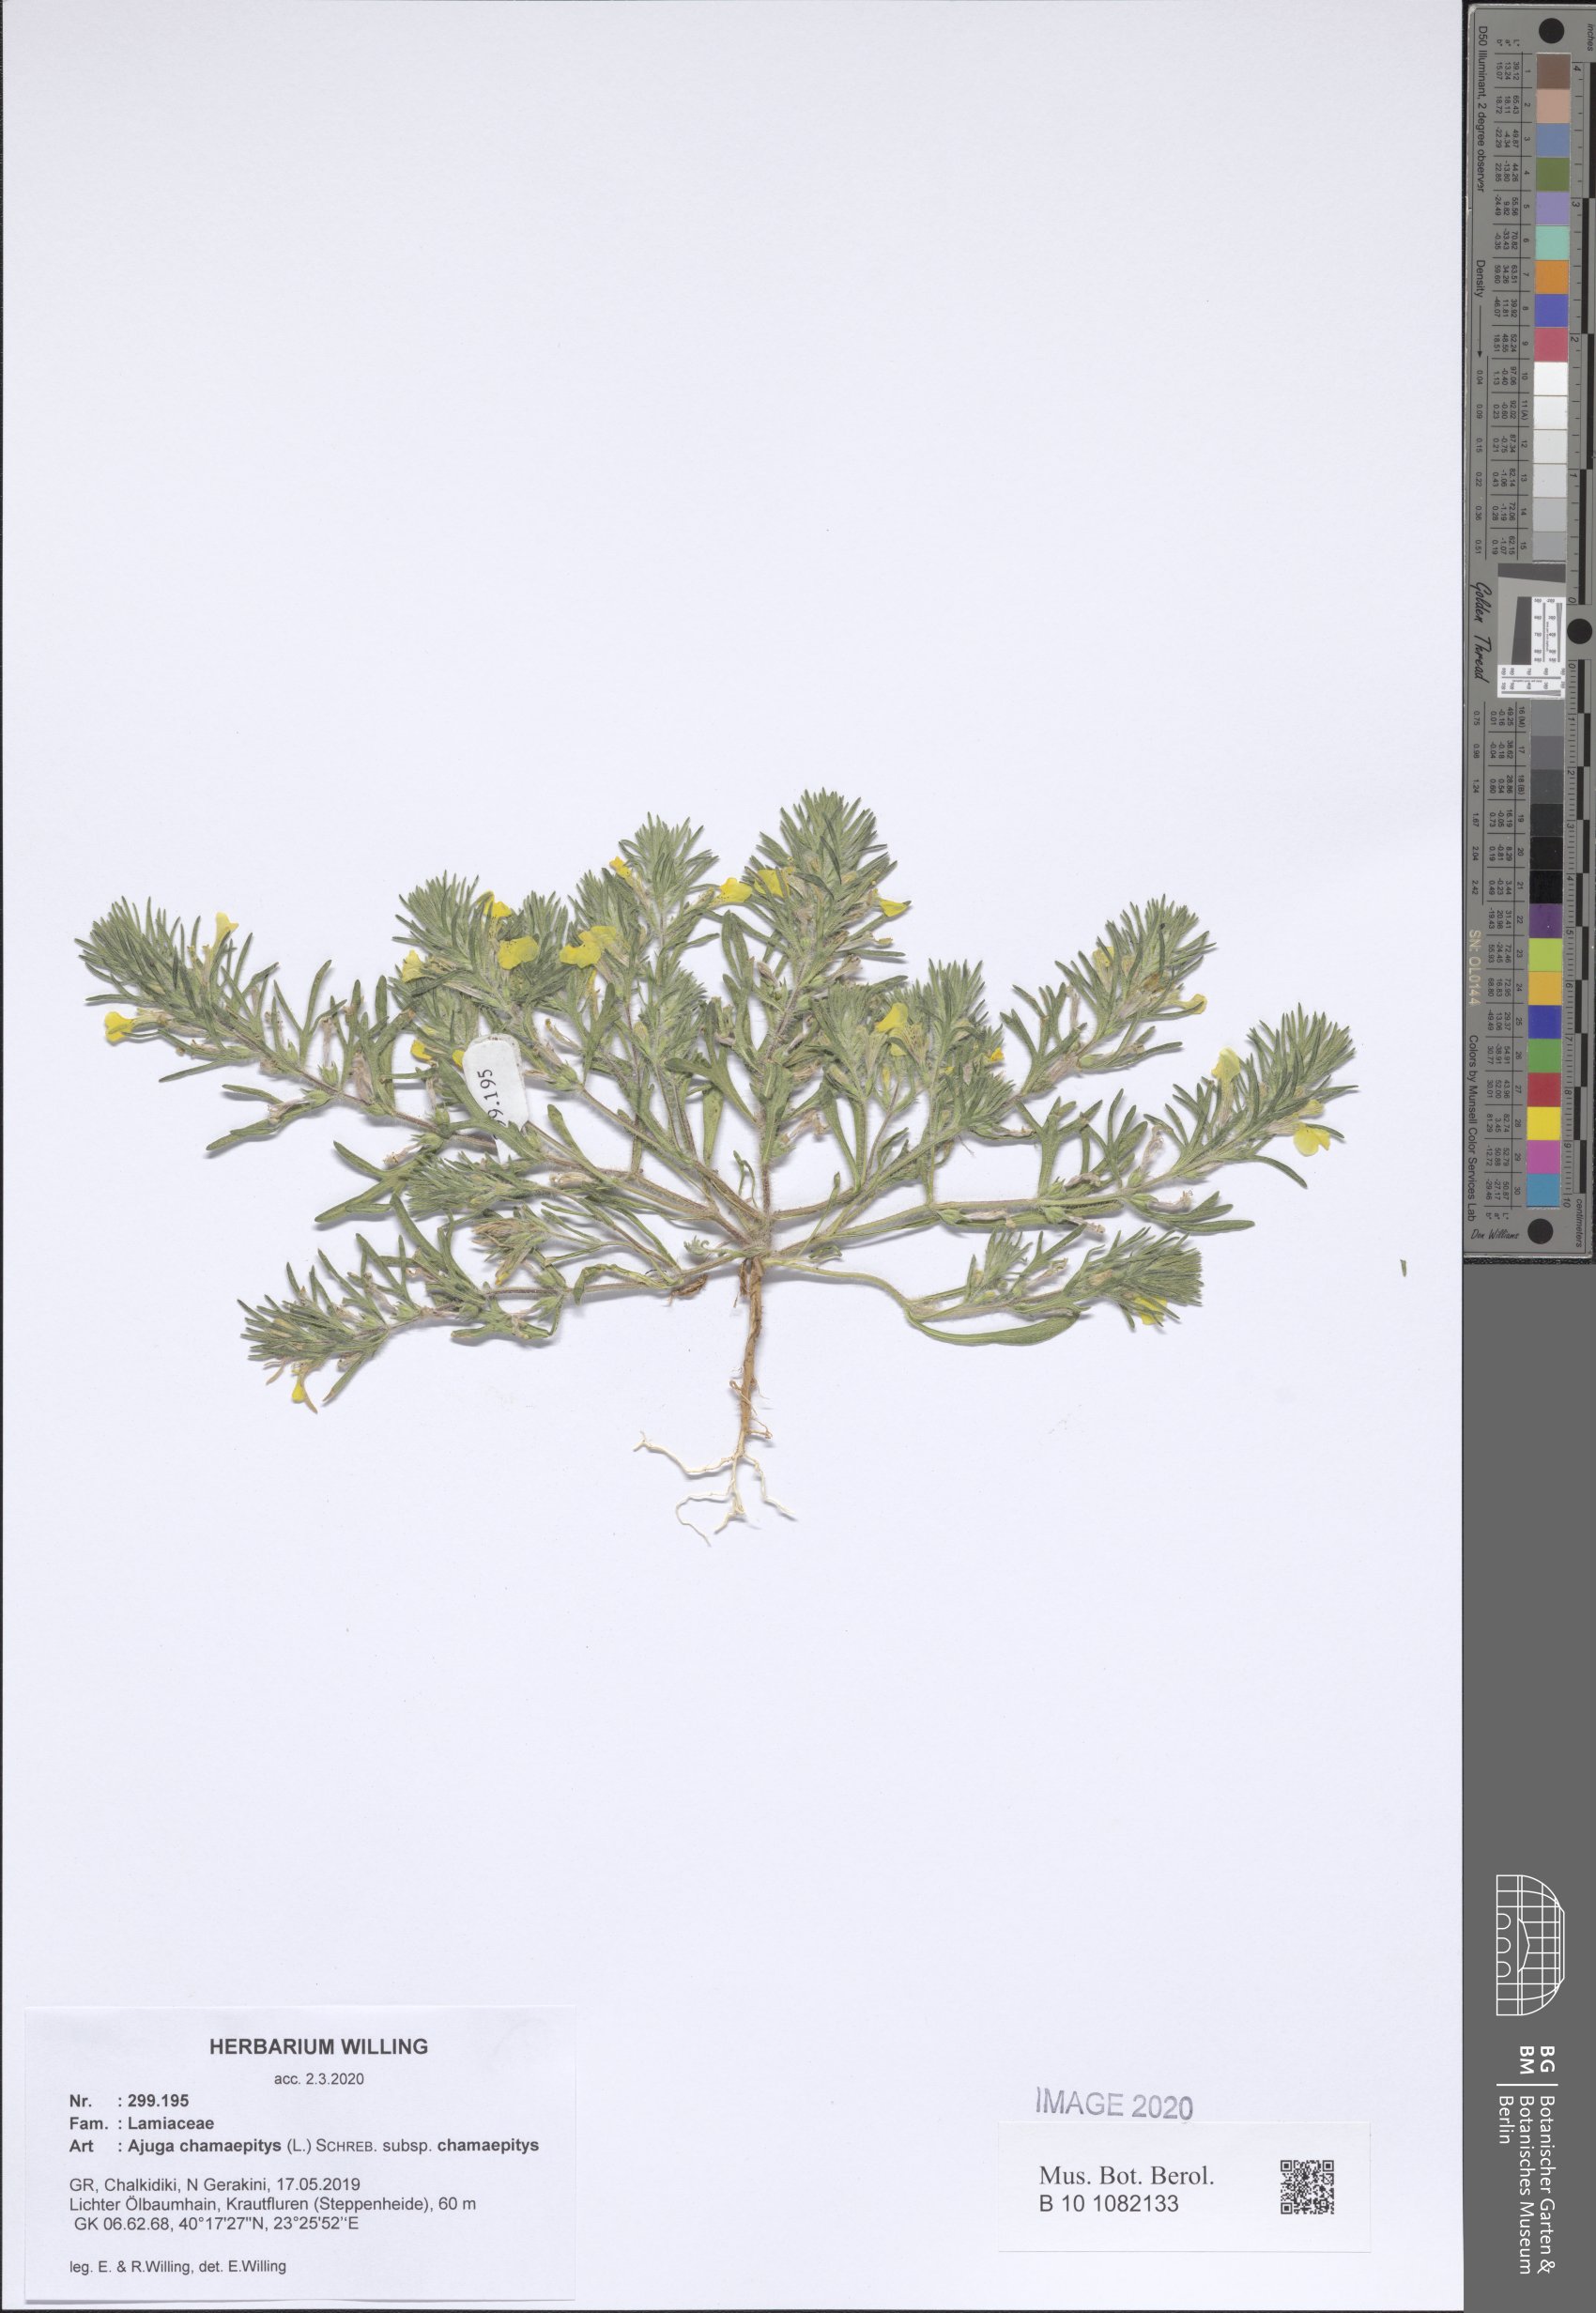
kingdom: Plantae
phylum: Tracheophyta
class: Magnoliopsida
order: Lamiales
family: Lamiaceae
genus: Ajuga
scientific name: Ajuga chamaepitys
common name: Ground-pine
